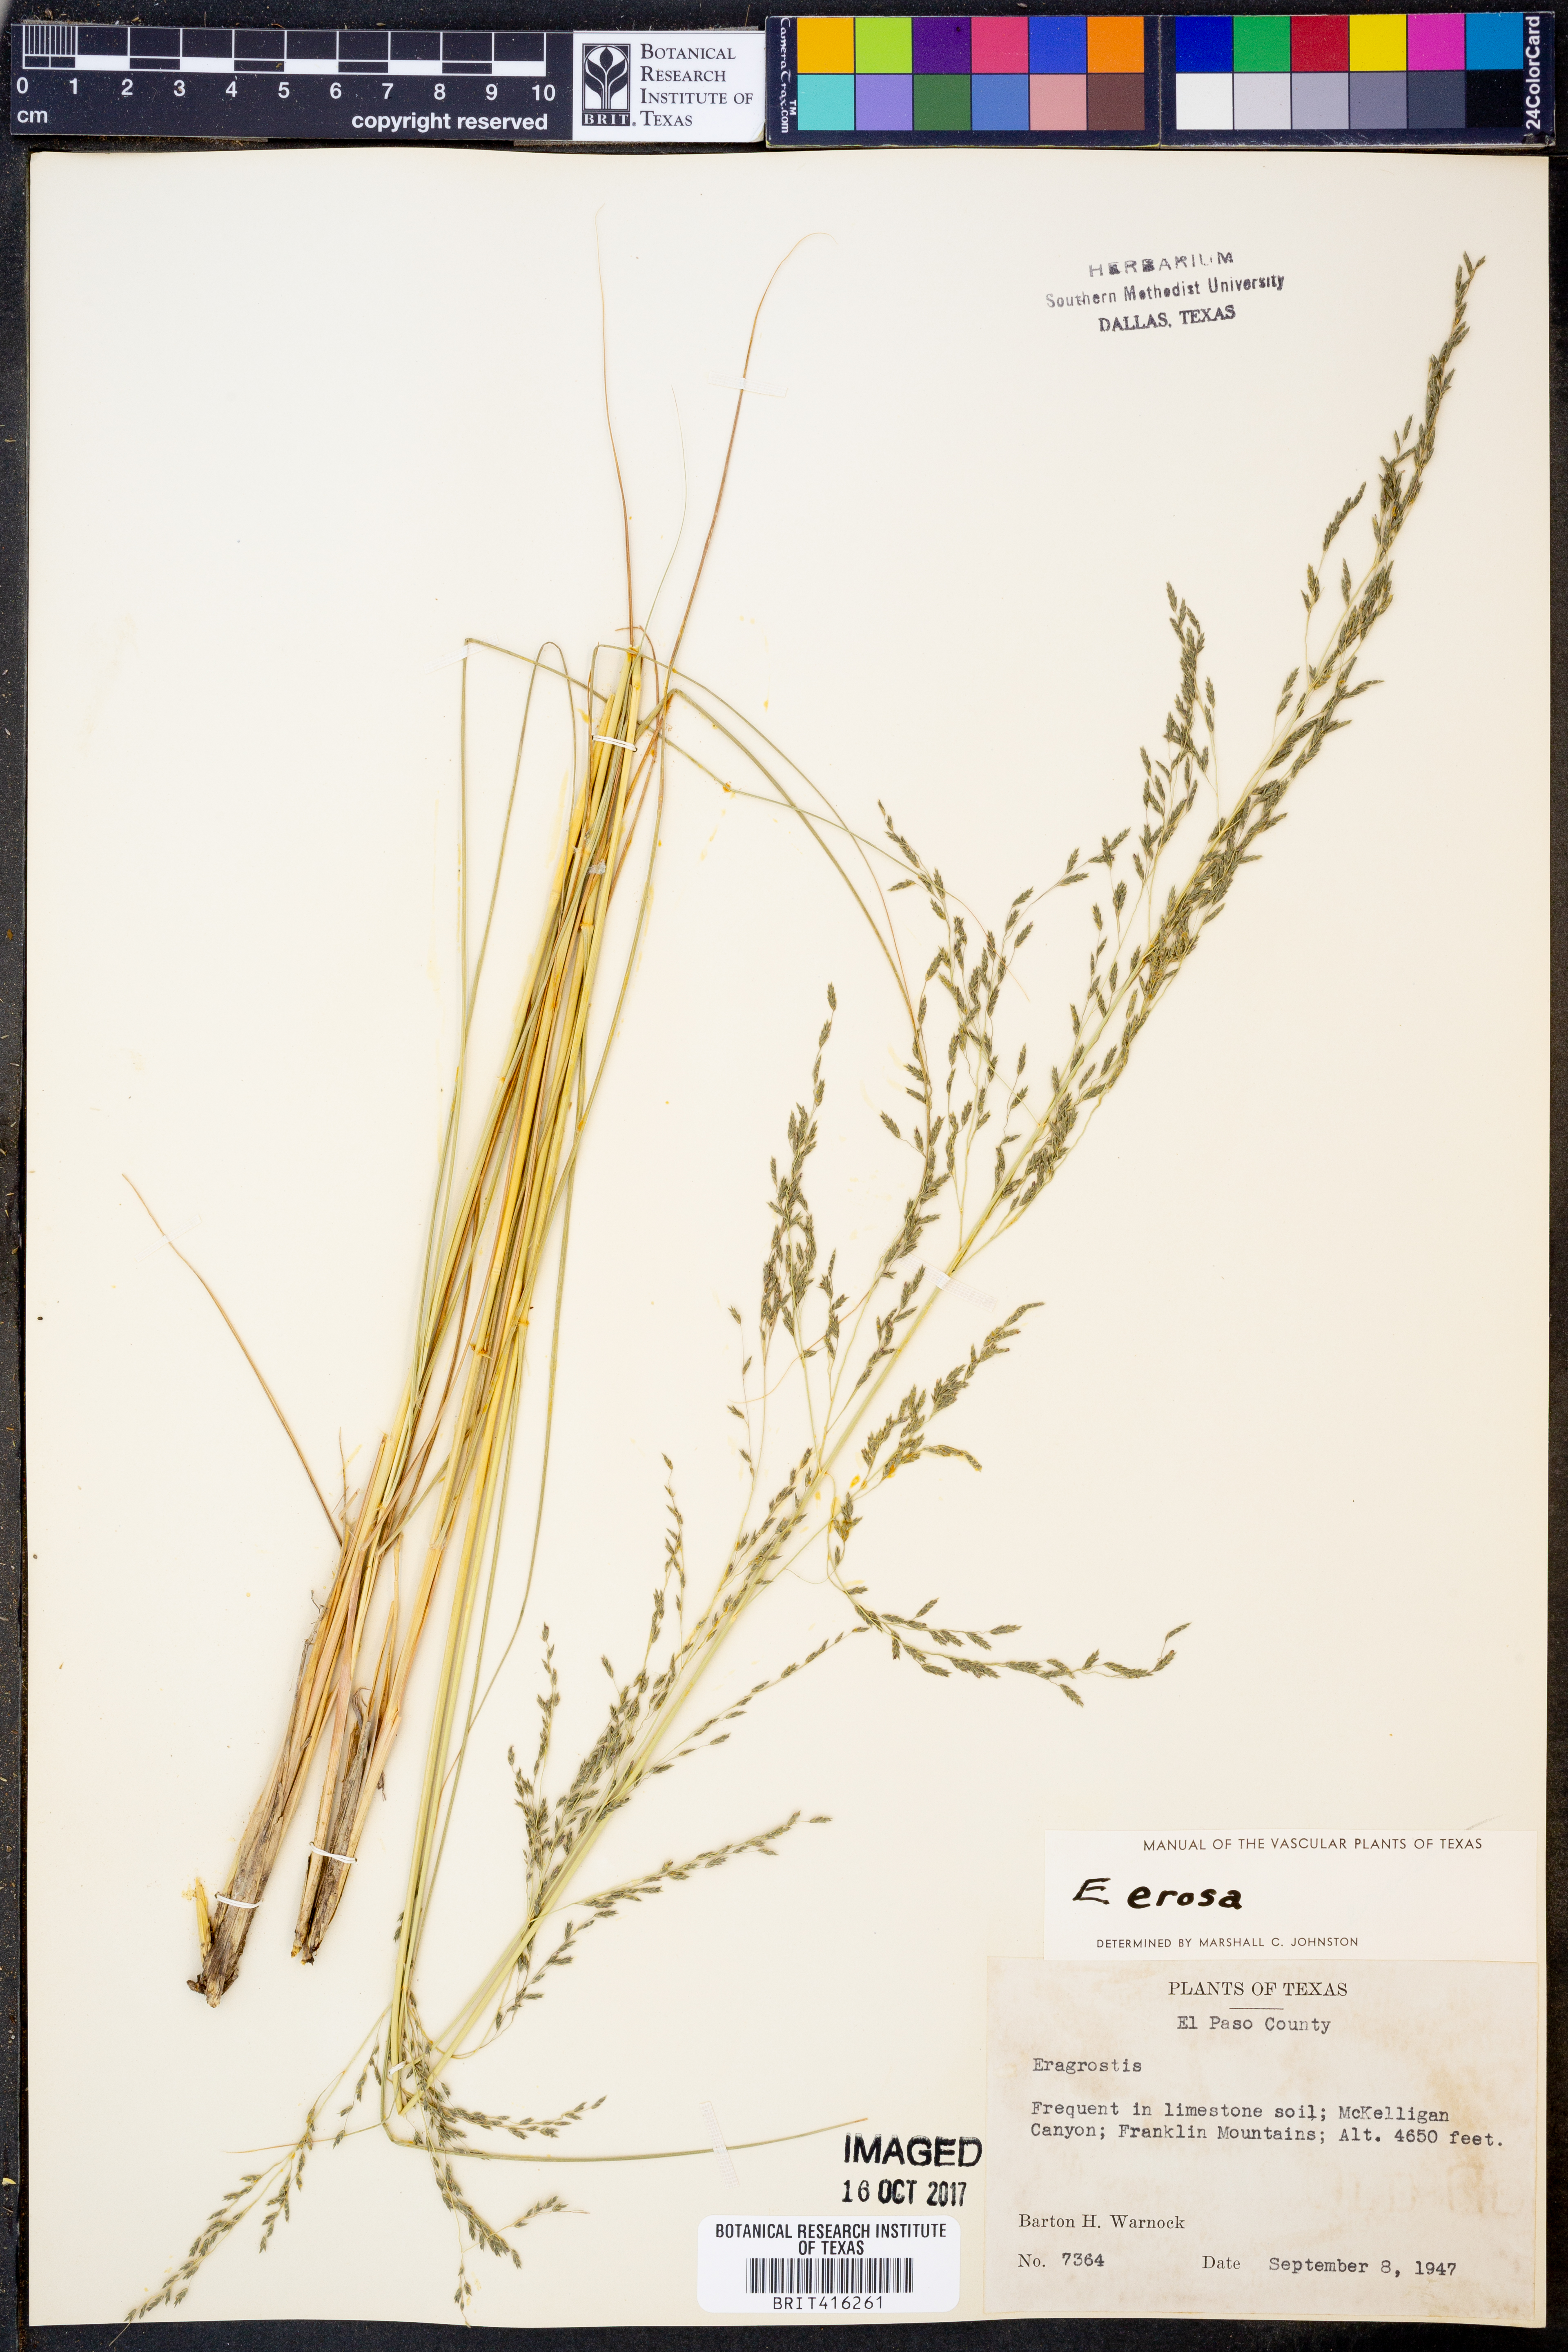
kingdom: Plantae
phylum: Tracheophyta
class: Liliopsida
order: Poales
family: Poaceae
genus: Eragrostis
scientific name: Eragrostis erosa
